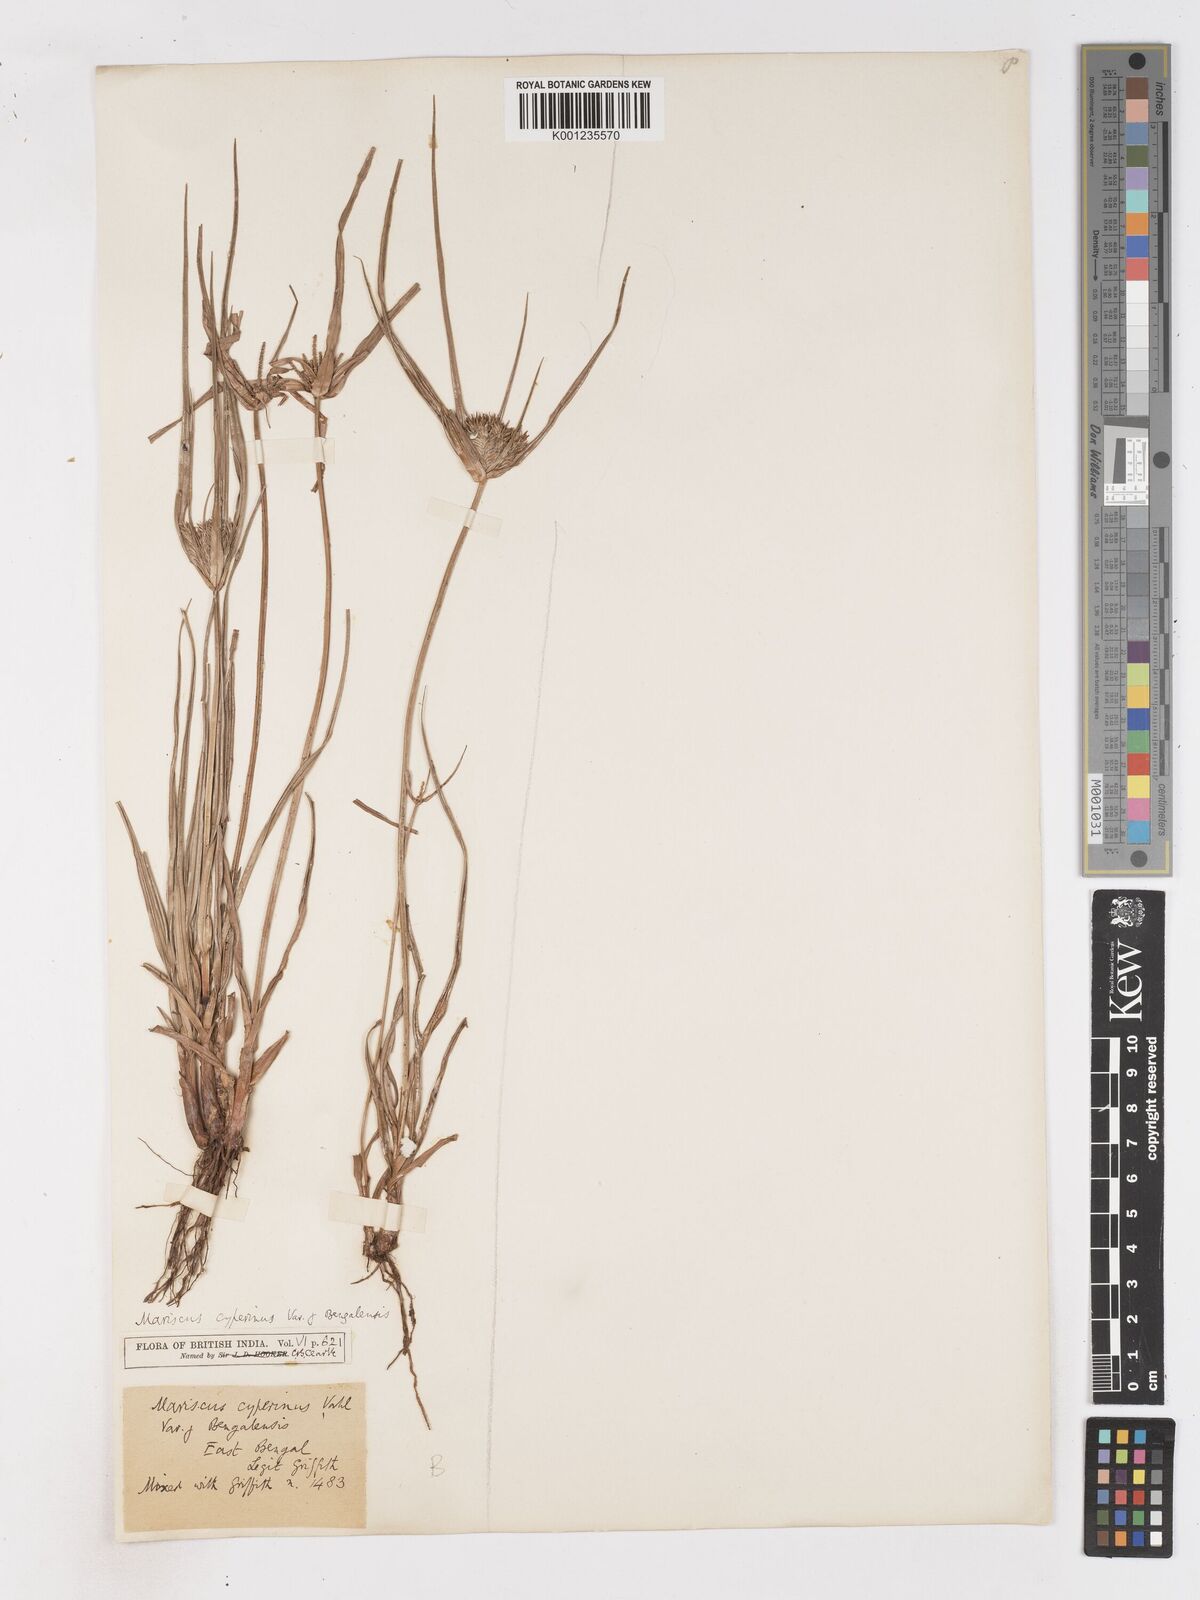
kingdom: Plantae
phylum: Tracheophyta
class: Liliopsida
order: Poales
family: Cyperaceae
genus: Cyperus
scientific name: Cyperus cyperinus
